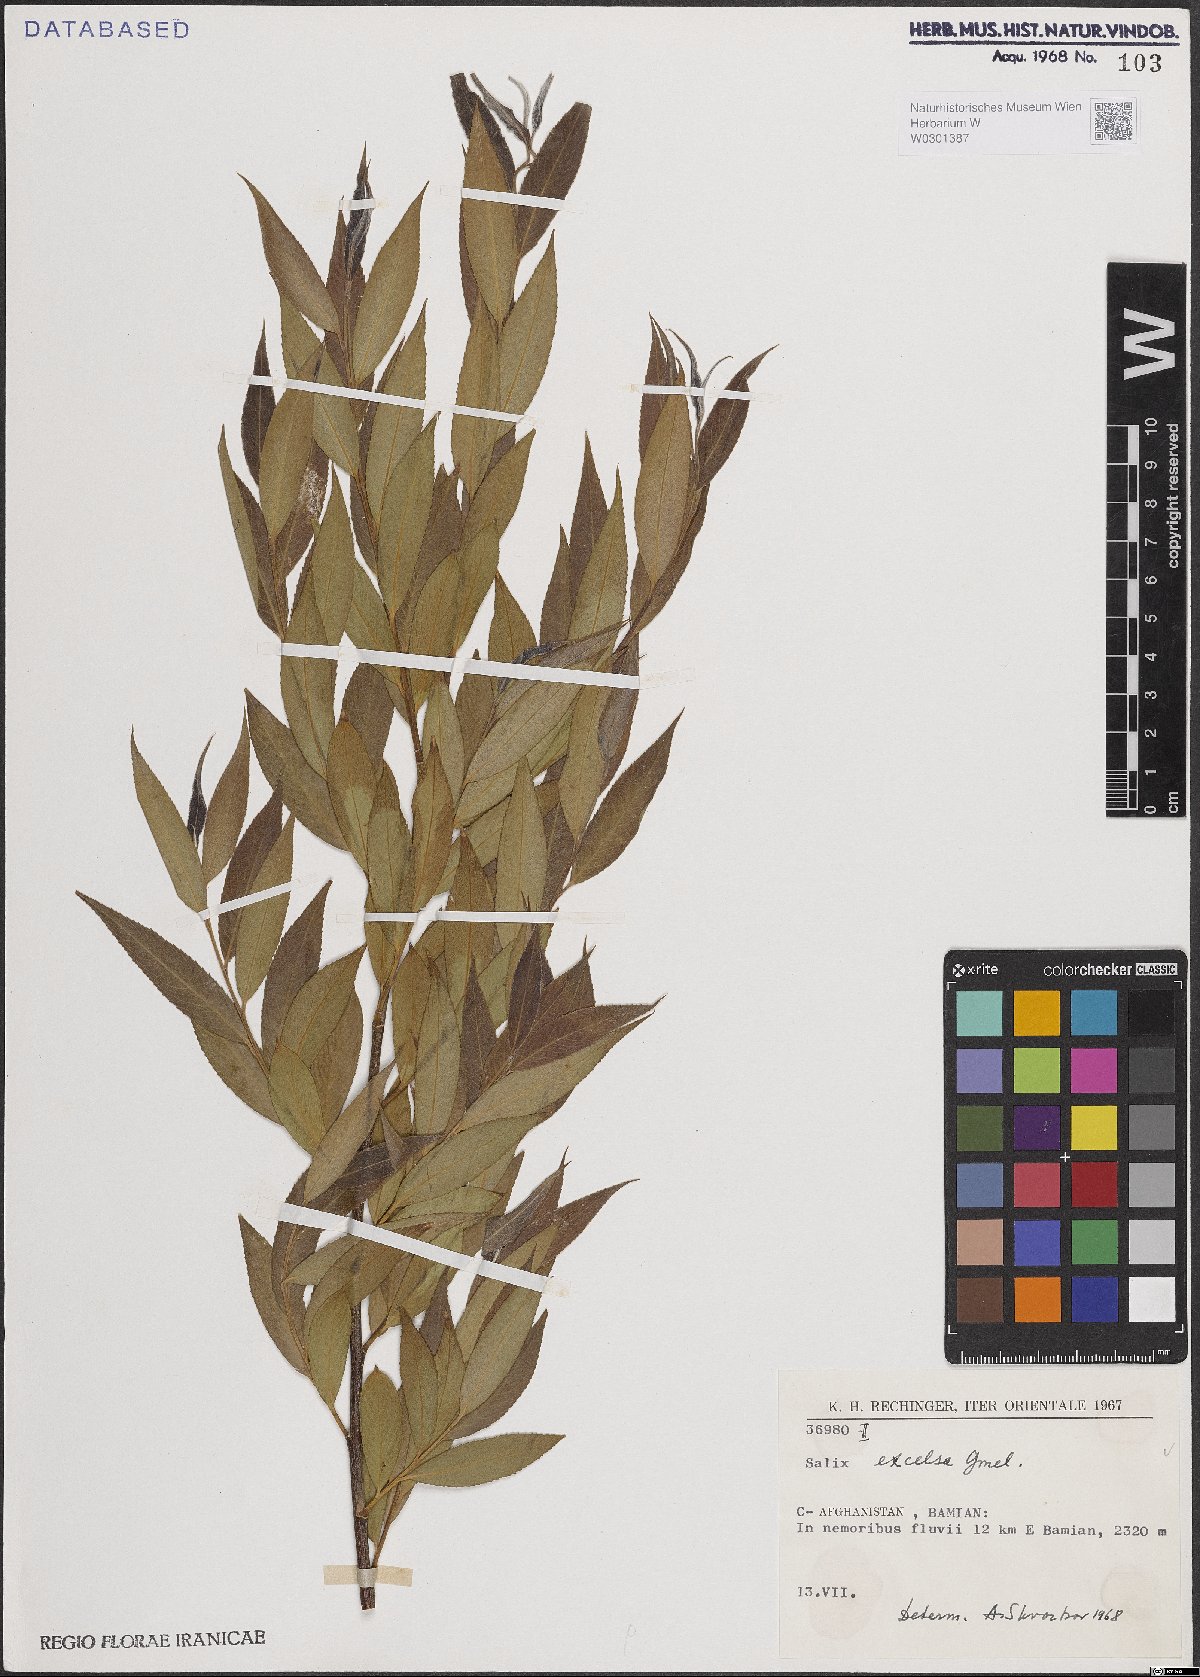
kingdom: Plantae
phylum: Tracheophyta
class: Magnoliopsida
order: Malpighiales
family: Salicaceae
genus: Salix
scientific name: Salix excelsa
